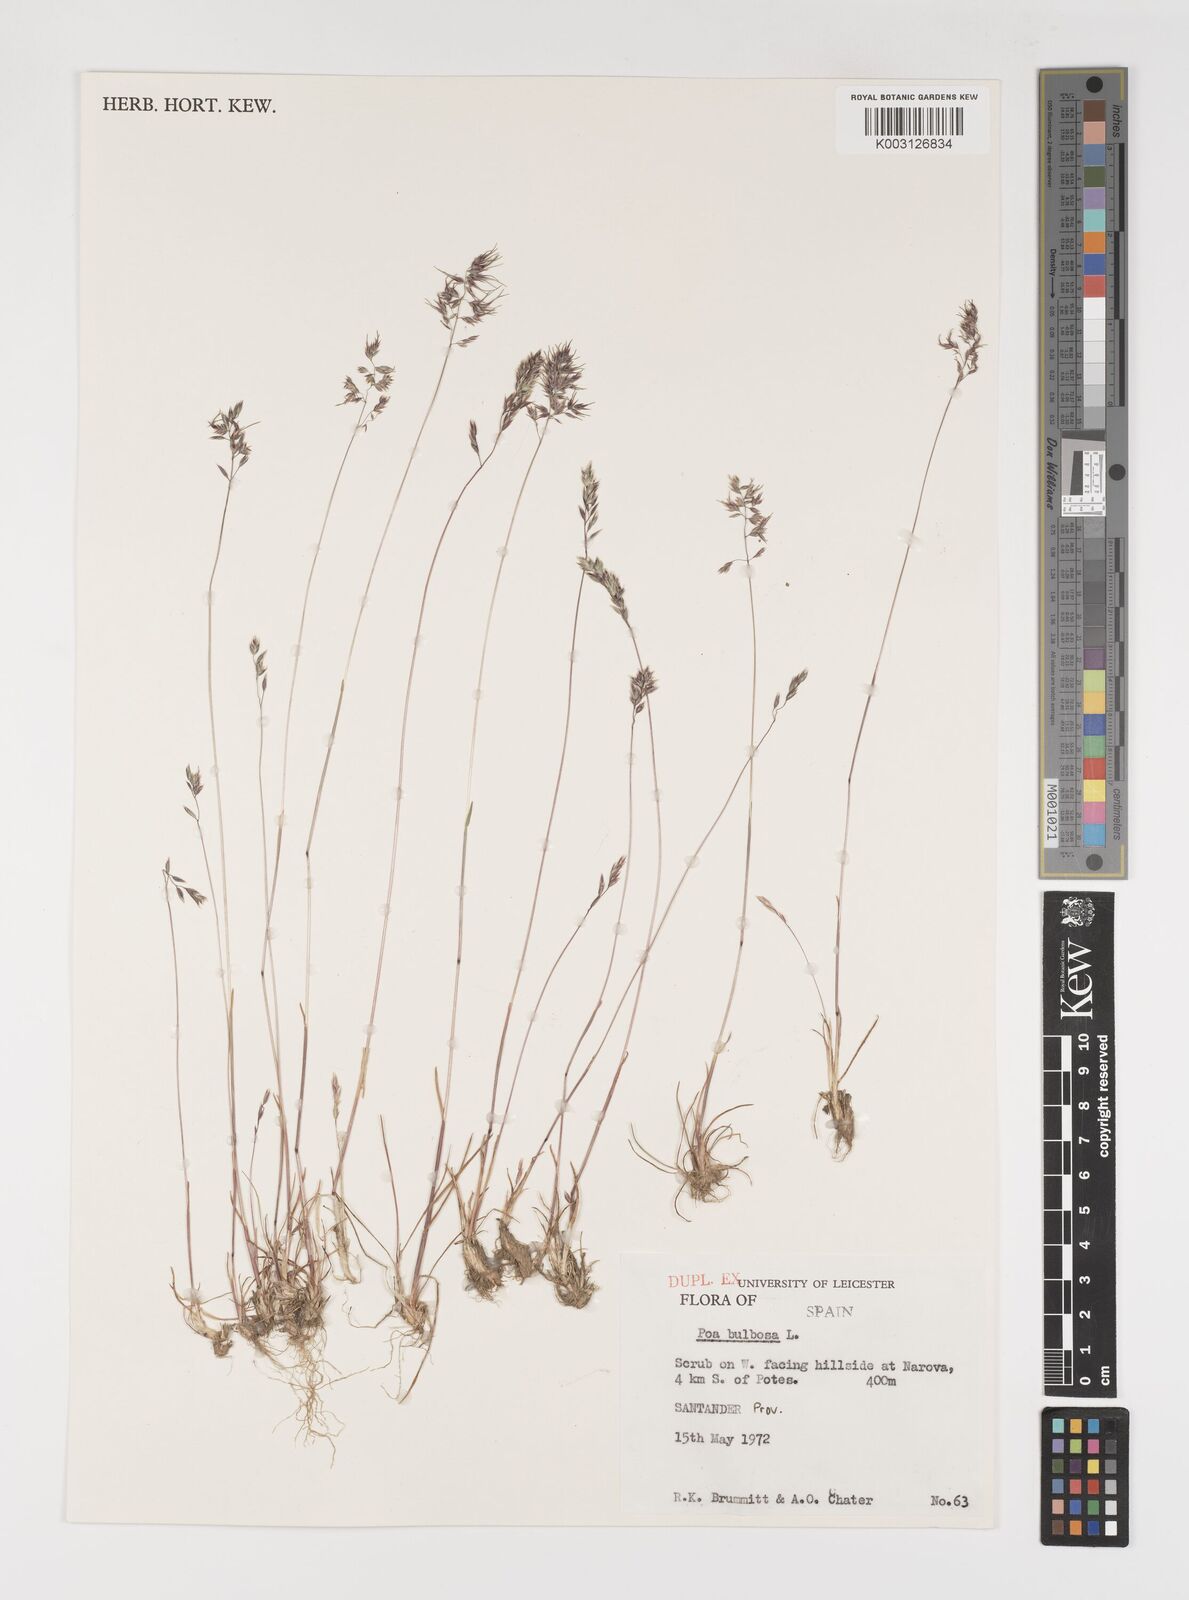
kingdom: Plantae
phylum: Tracheophyta
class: Liliopsida
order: Poales
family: Poaceae
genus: Poa
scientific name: Poa bulbosa
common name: Bulbous bluegrass
